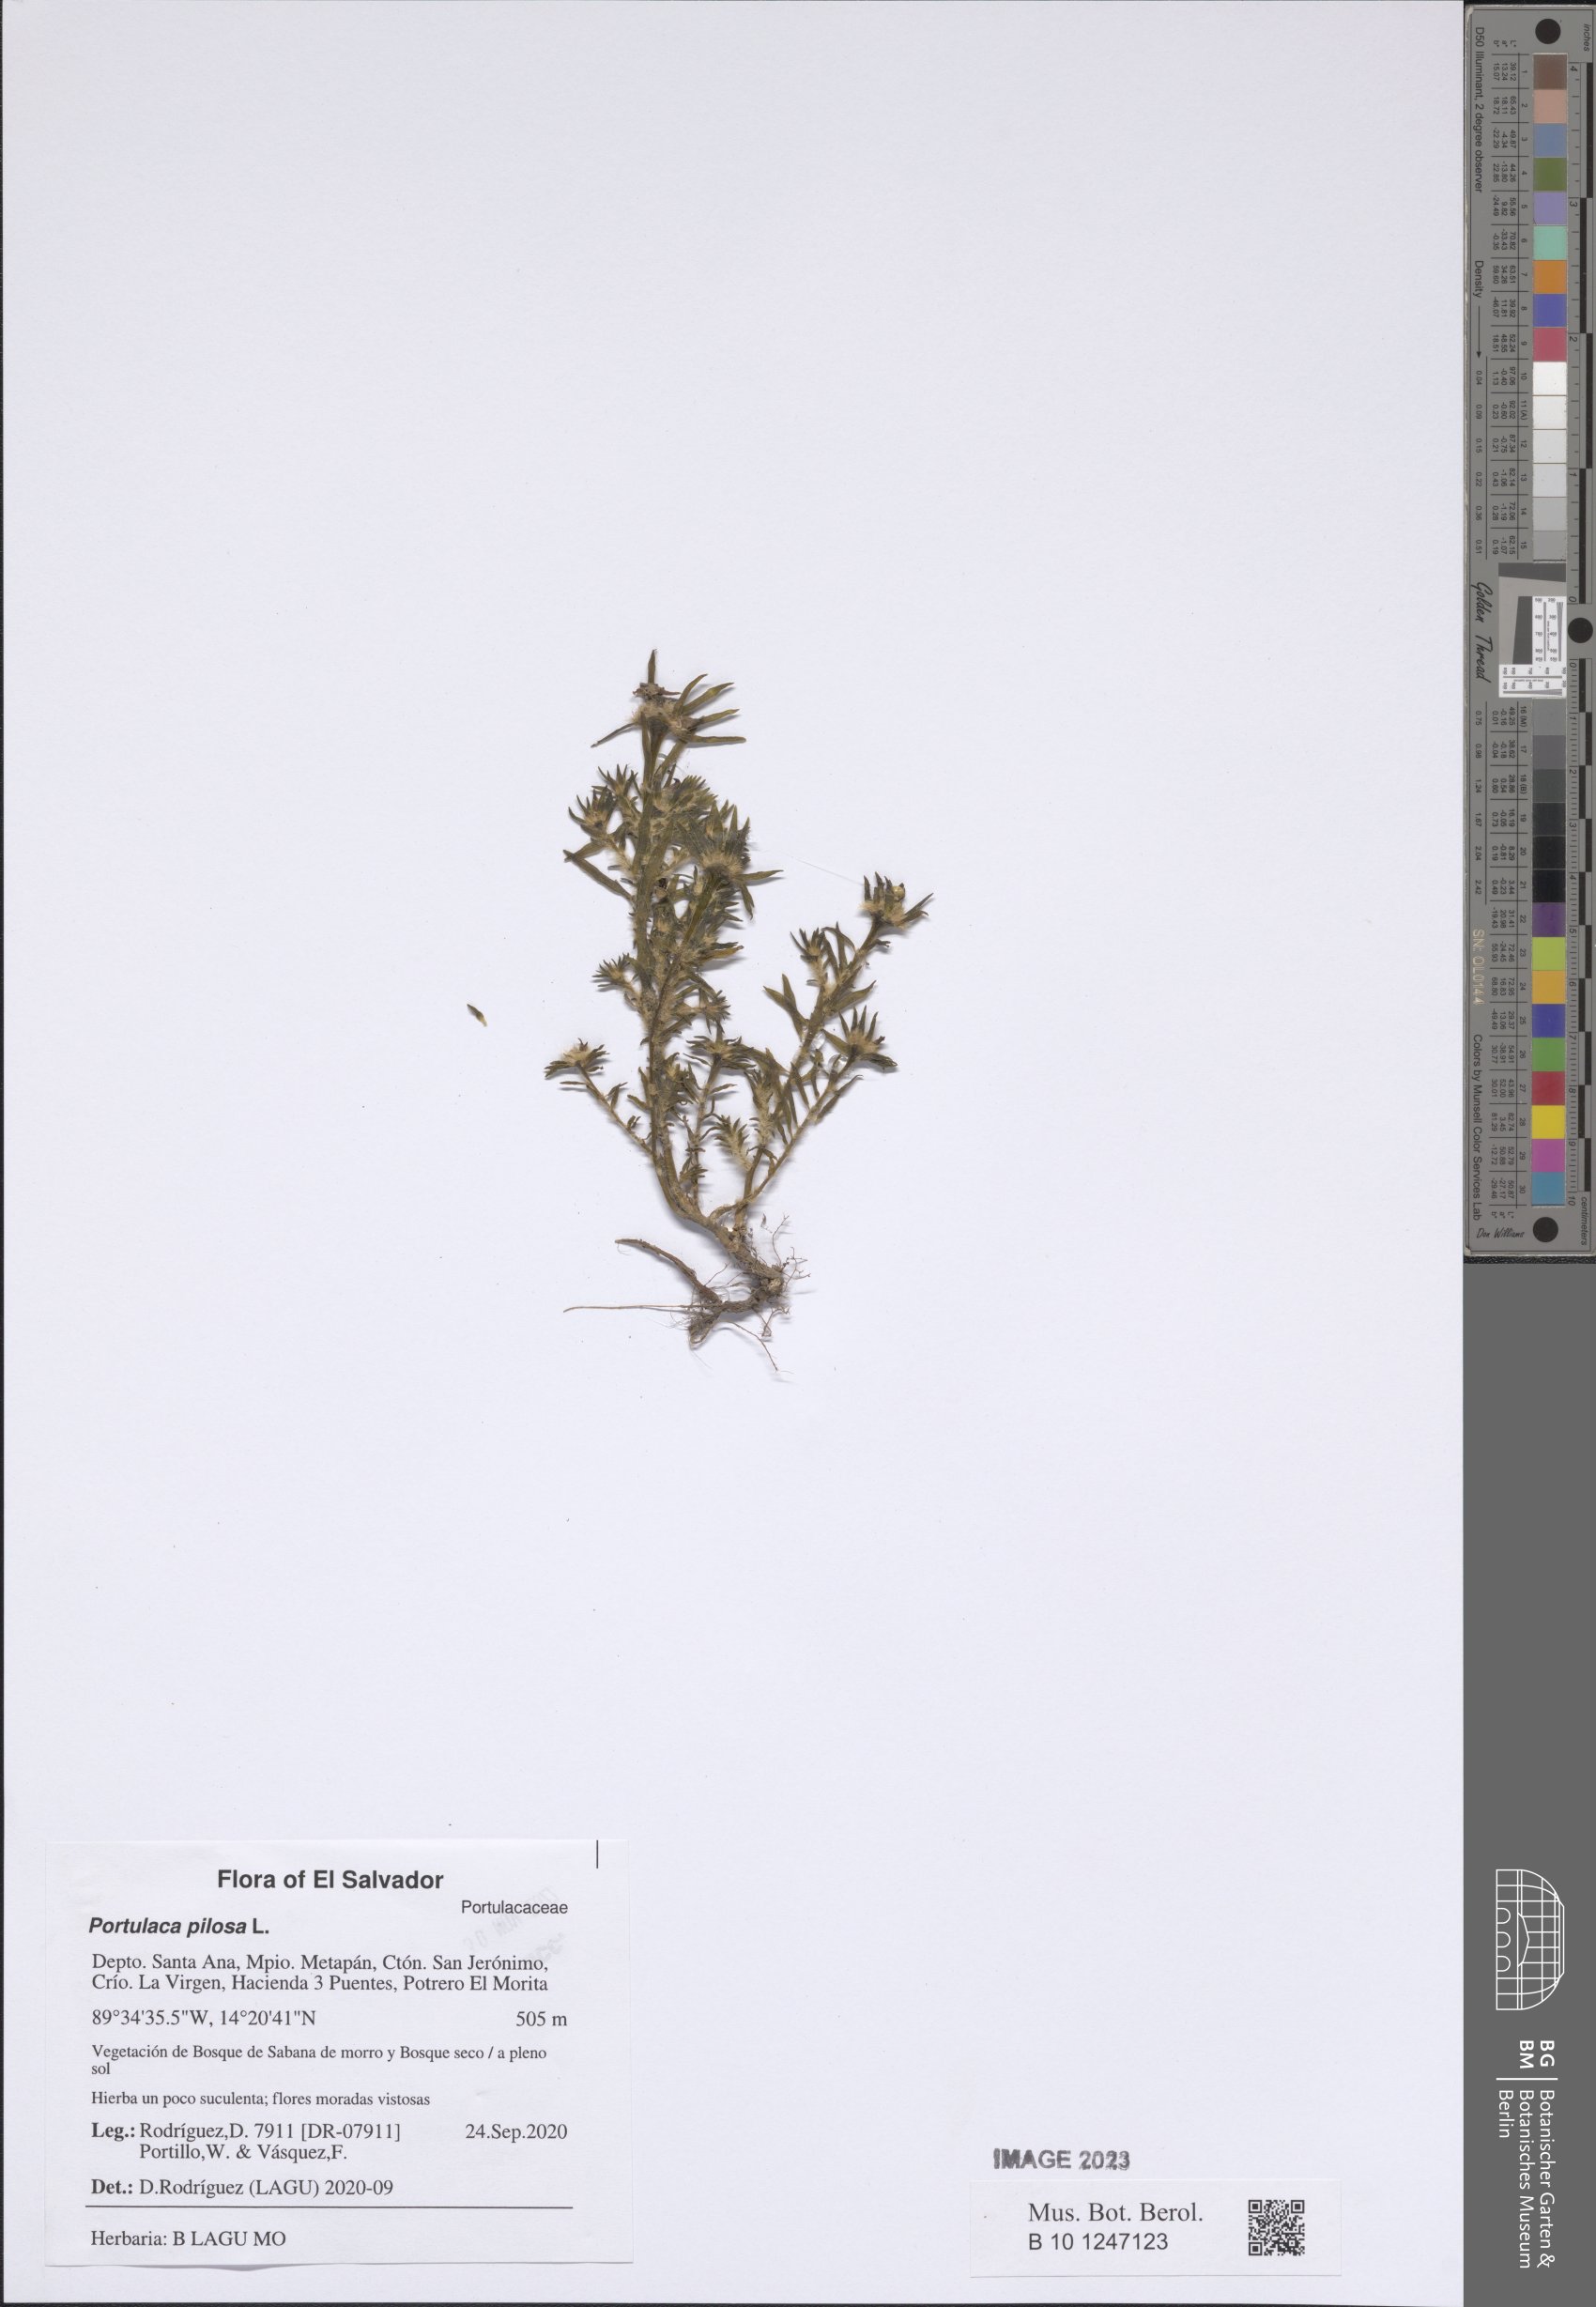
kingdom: Plantae
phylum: Tracheophyta
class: Magnoliopsida
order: Caryophyllales
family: Portulacaceae
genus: Portulaca
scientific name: Portulaca pilosa
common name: Kiss me quick
